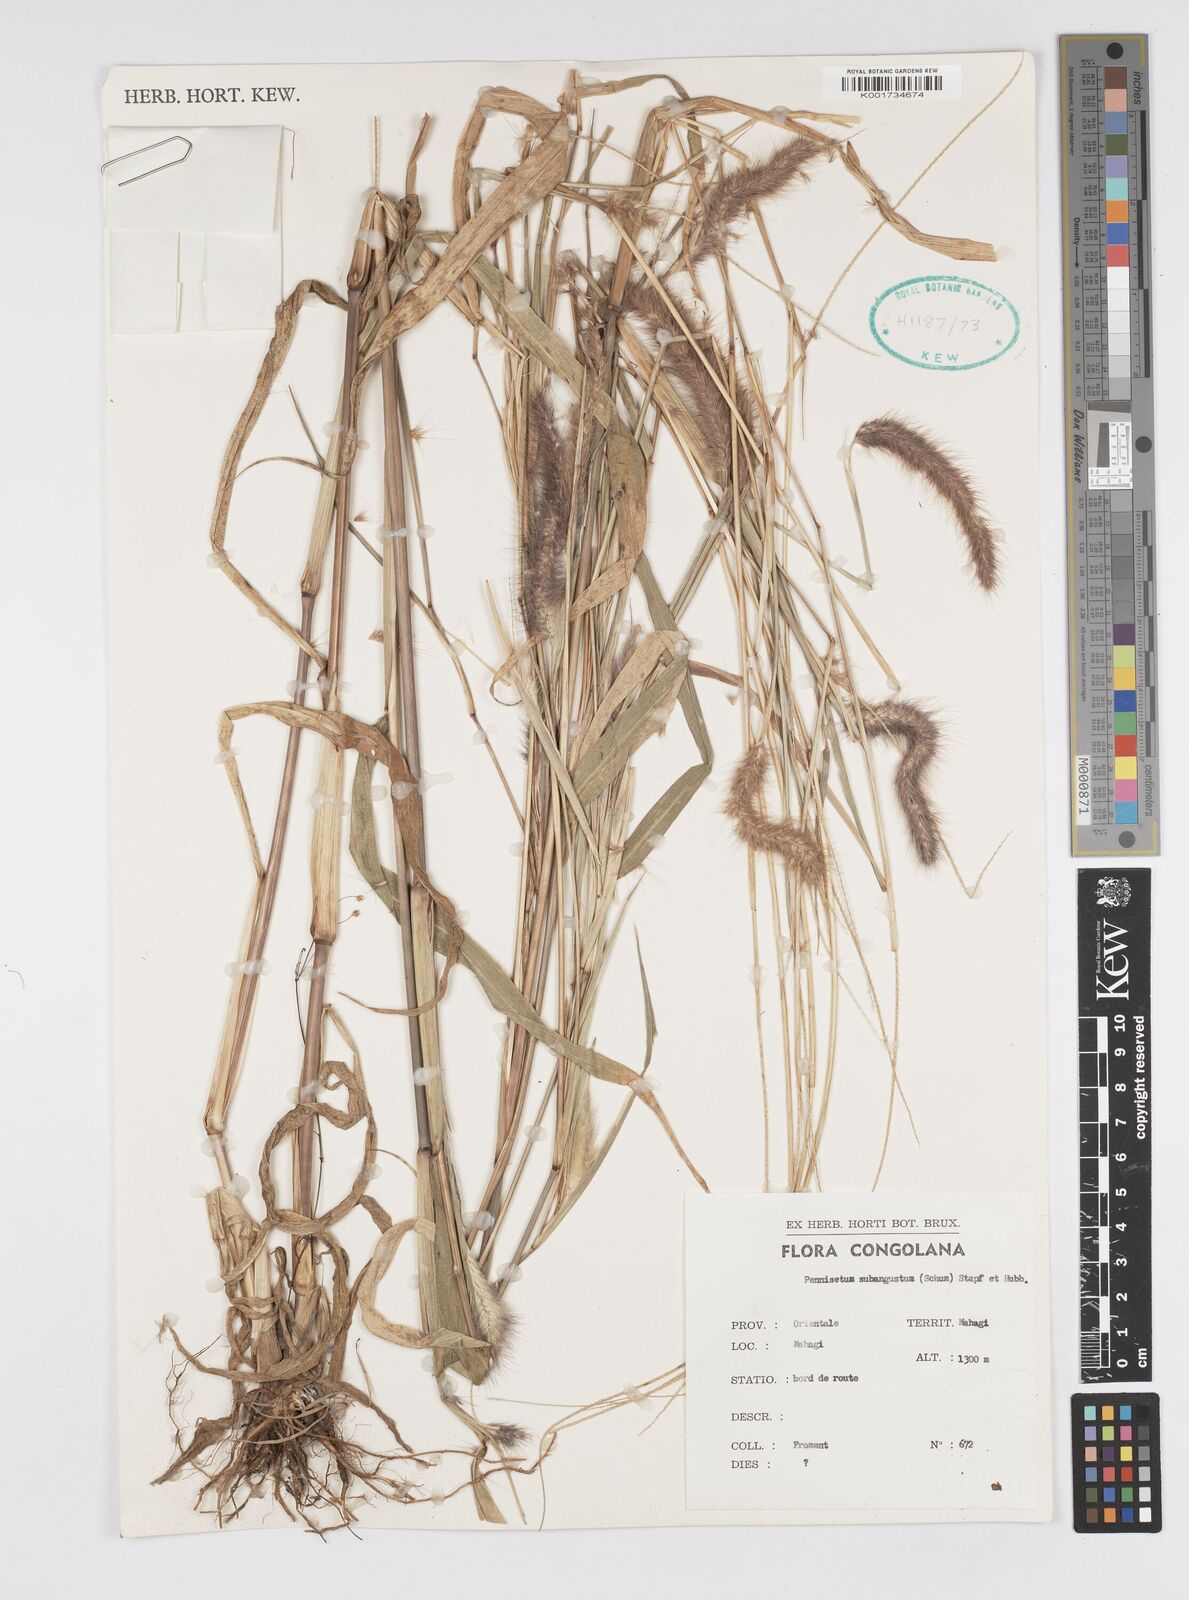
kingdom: Plantae
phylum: Tracheophyta
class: Liliopsida
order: Poales
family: Poaceae
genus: Setaria
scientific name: Setaria parviflora
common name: Knotroot bristle-grass
